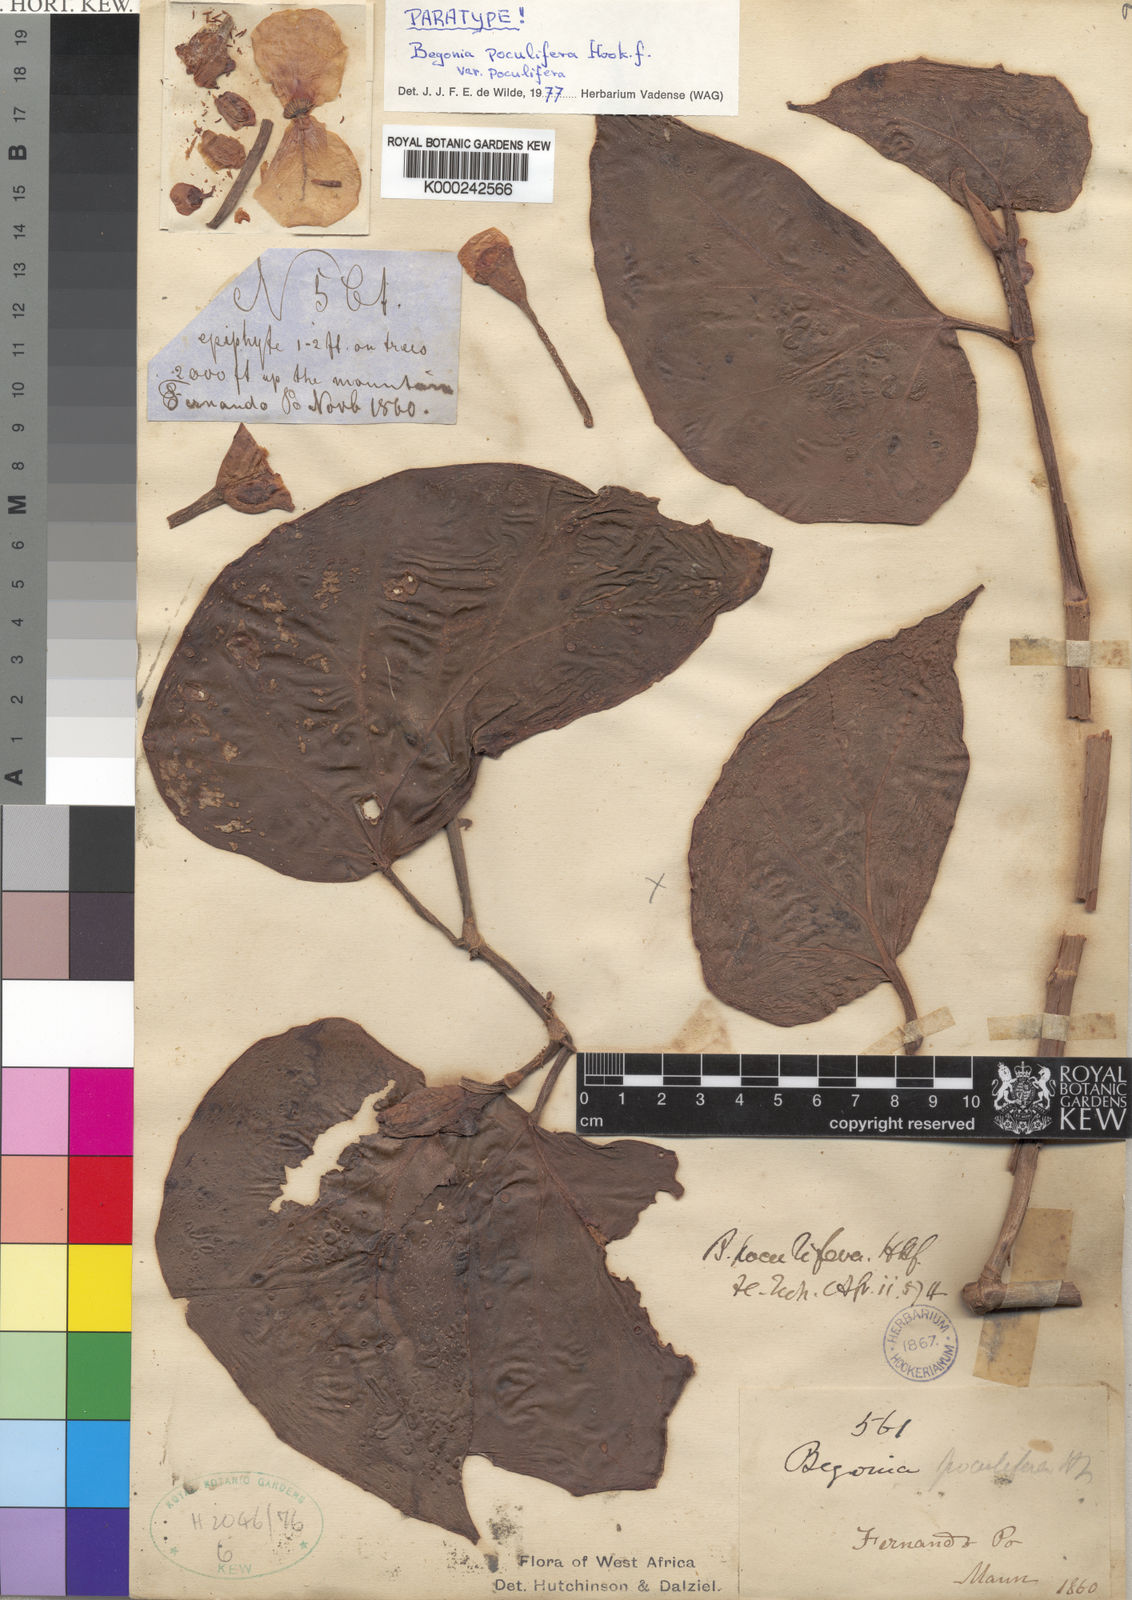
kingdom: Plantae
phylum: Tracheophyta
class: Magnoliopsida
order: Cucurbitales
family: Begoniaceae
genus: Begonia
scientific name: Begonia poculifera
